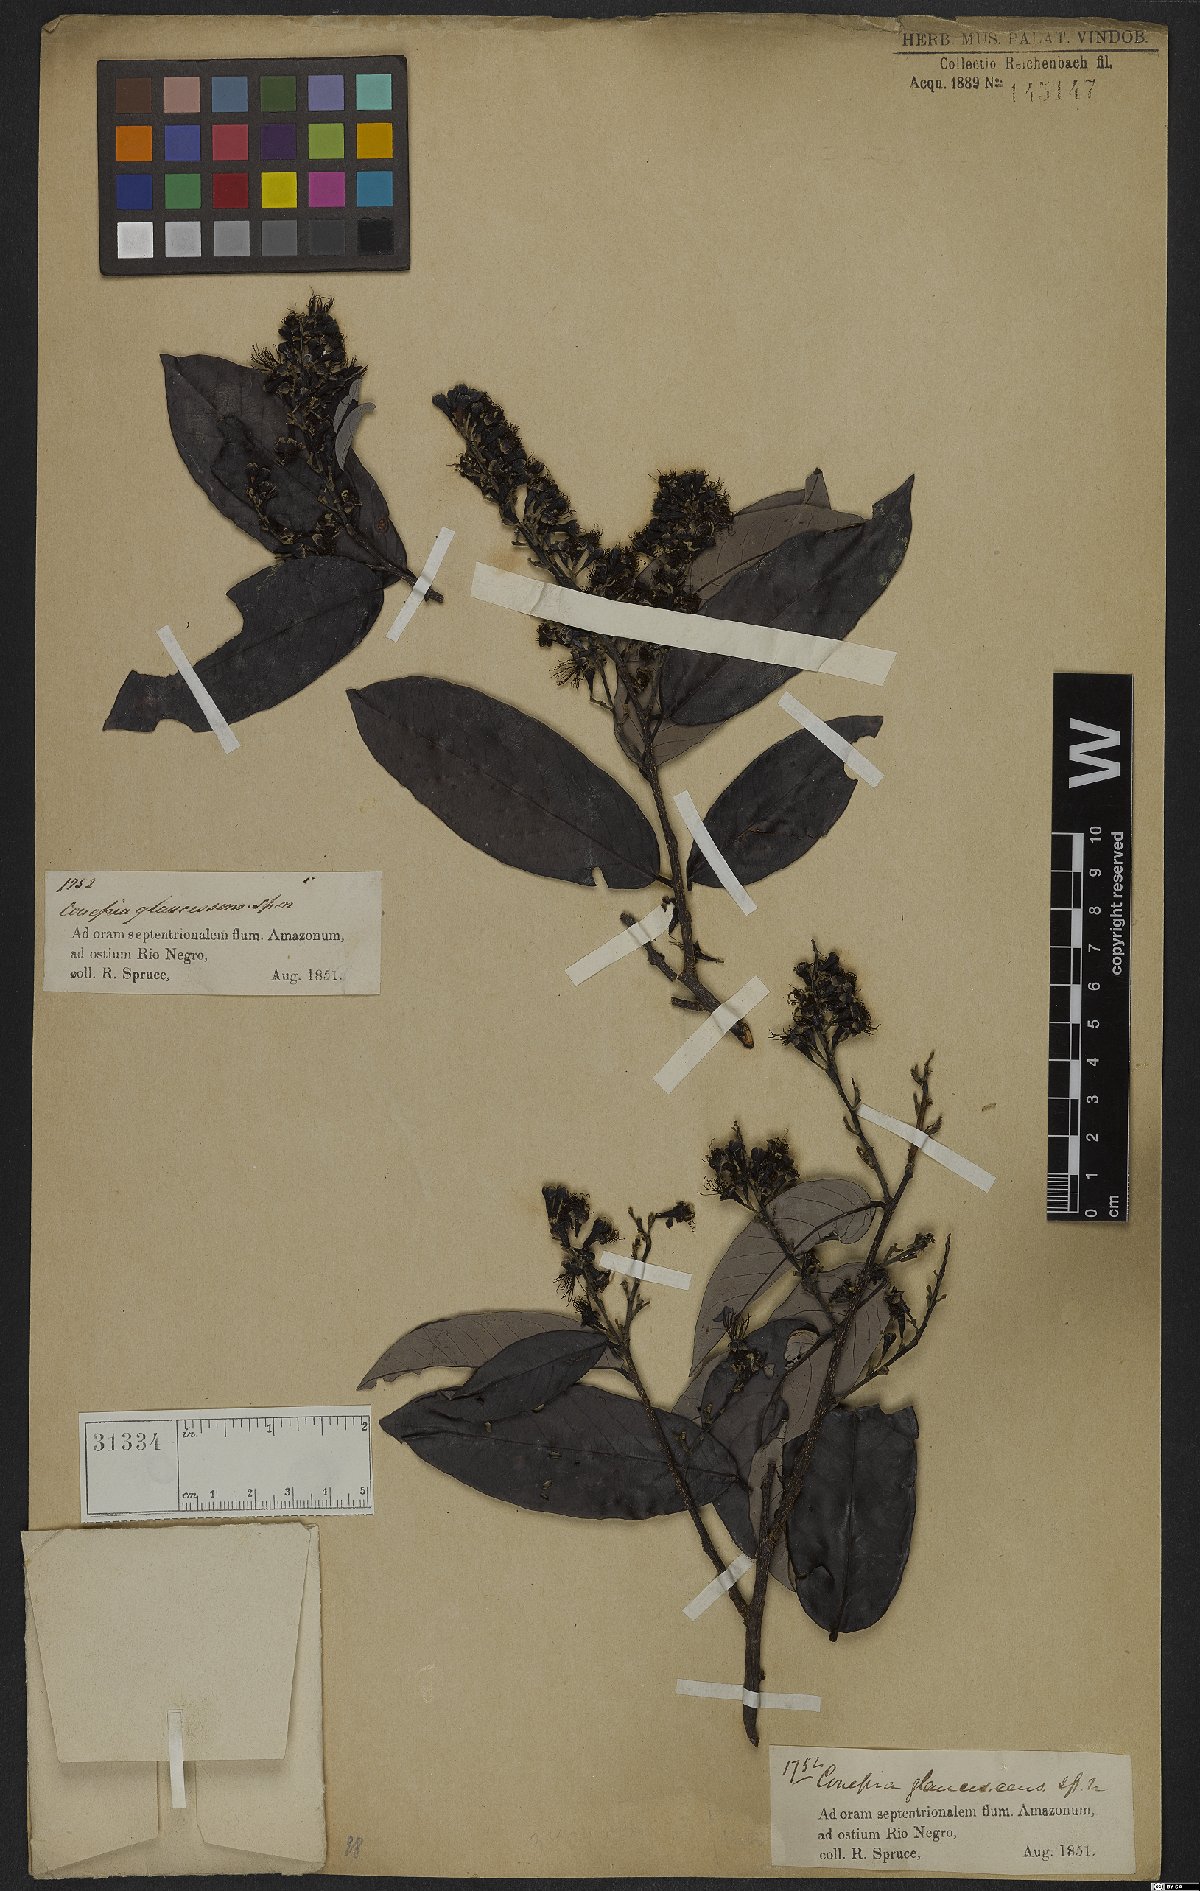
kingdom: Plantae
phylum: Tracheophyta
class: Magnoliopsida
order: Malpighiales
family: Chrysobalanaceae
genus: Couepia
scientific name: Couepia paraensis
